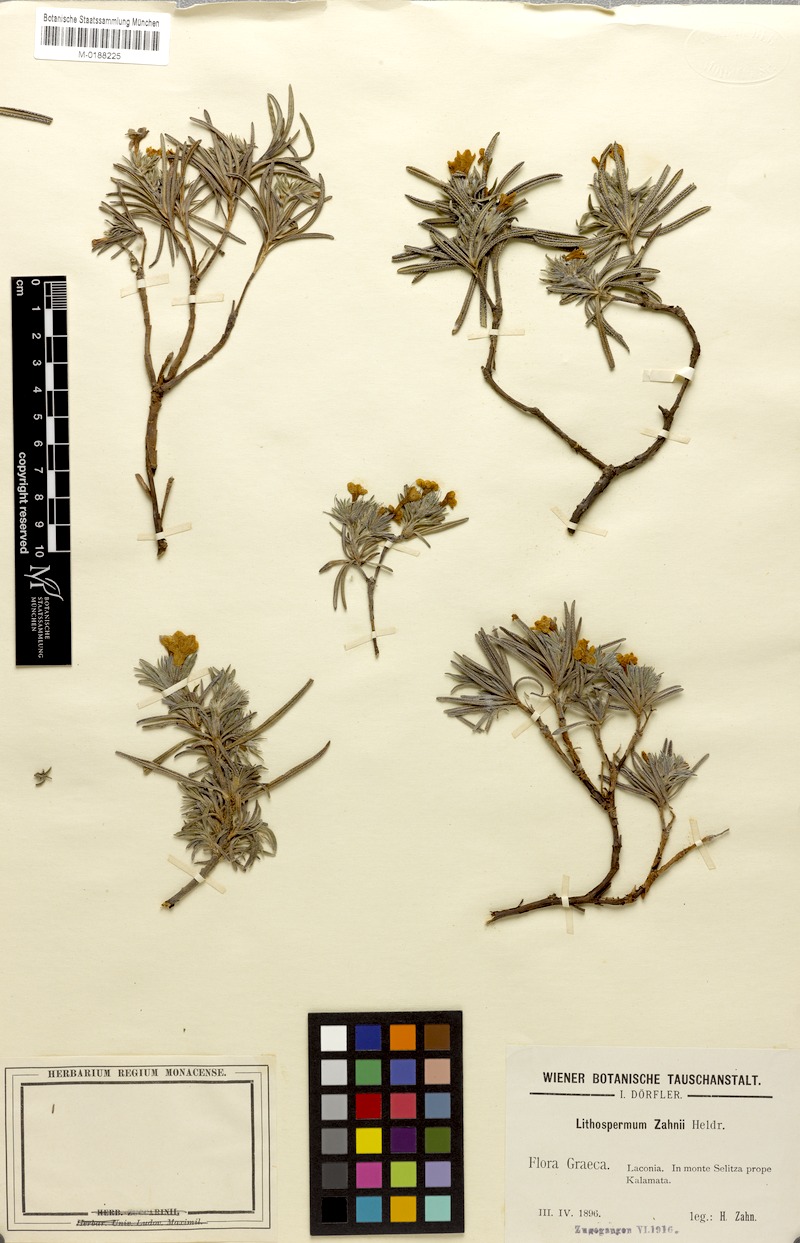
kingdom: Plantae
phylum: Tracheophyta
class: Magnoliopsida
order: Boraginales
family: Boraginaceae
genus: Lithodora
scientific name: Lithodora zahnii
